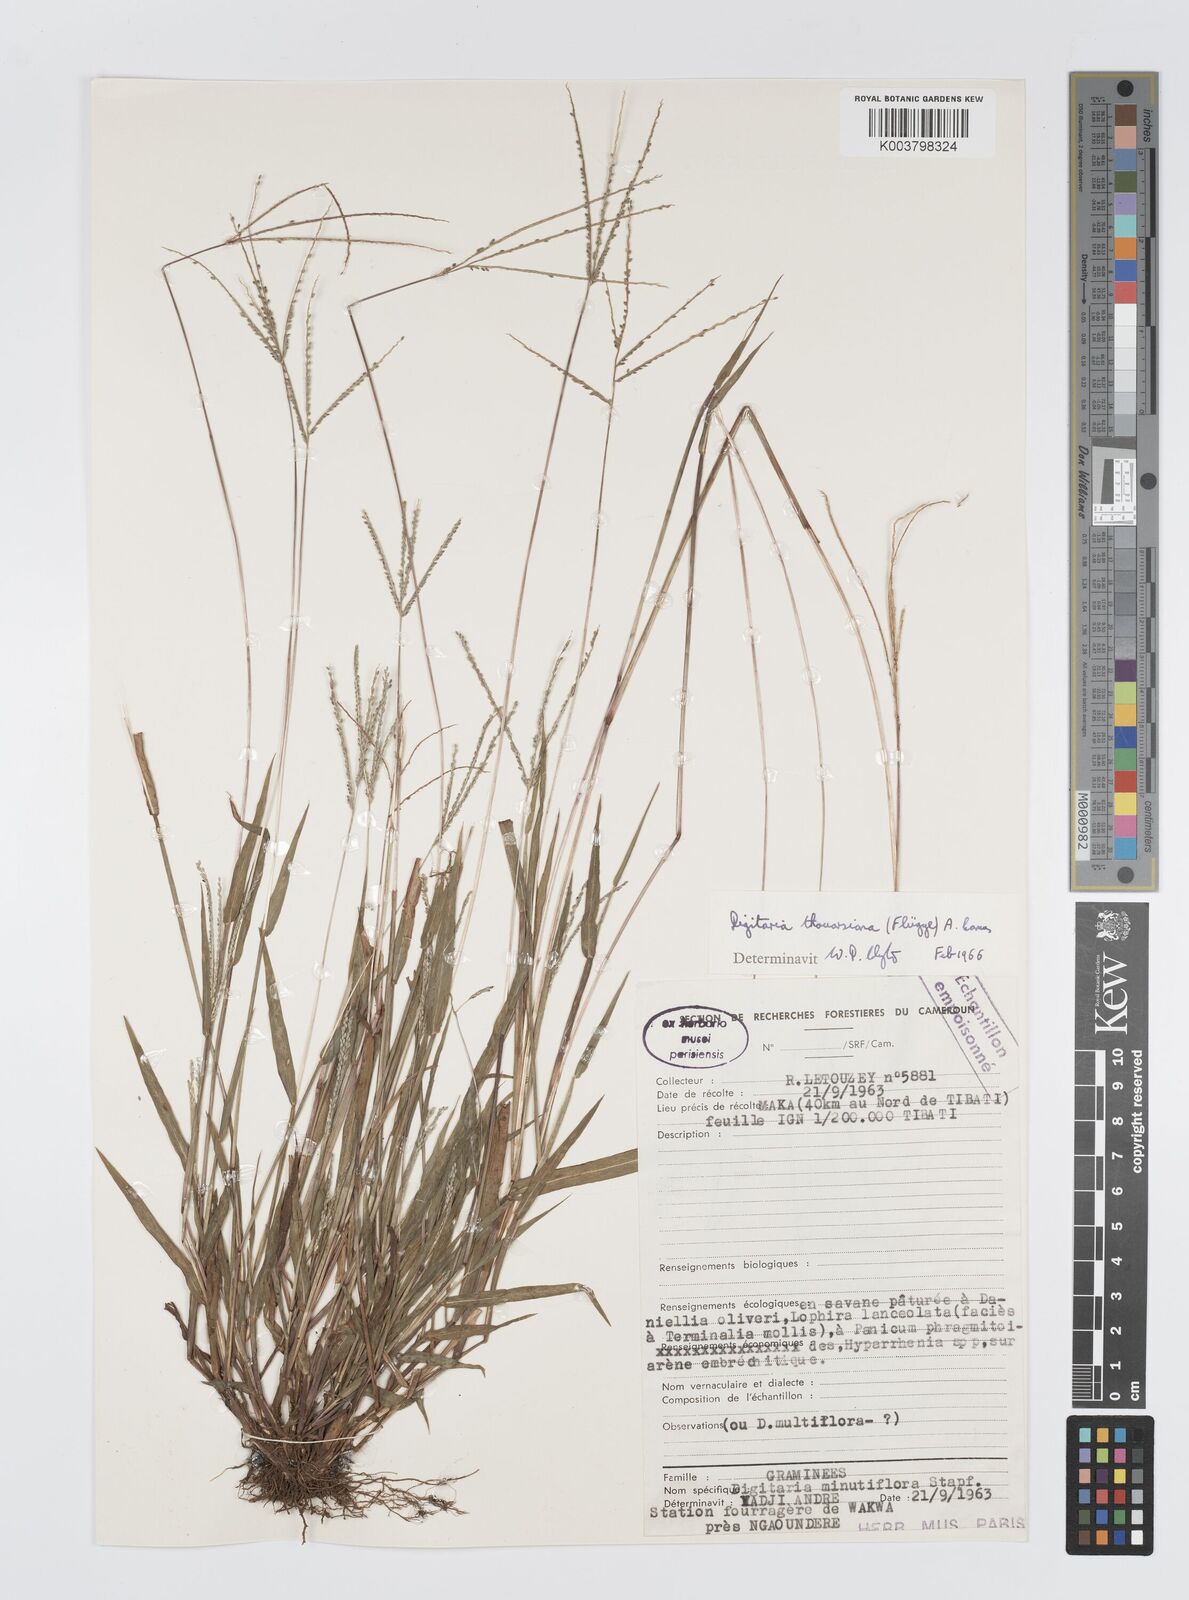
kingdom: Plantae
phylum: Tracheophyta
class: Liliopsida
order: Poales
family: Poaceae
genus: Digitaria
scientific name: Digitaria thouarsiana
